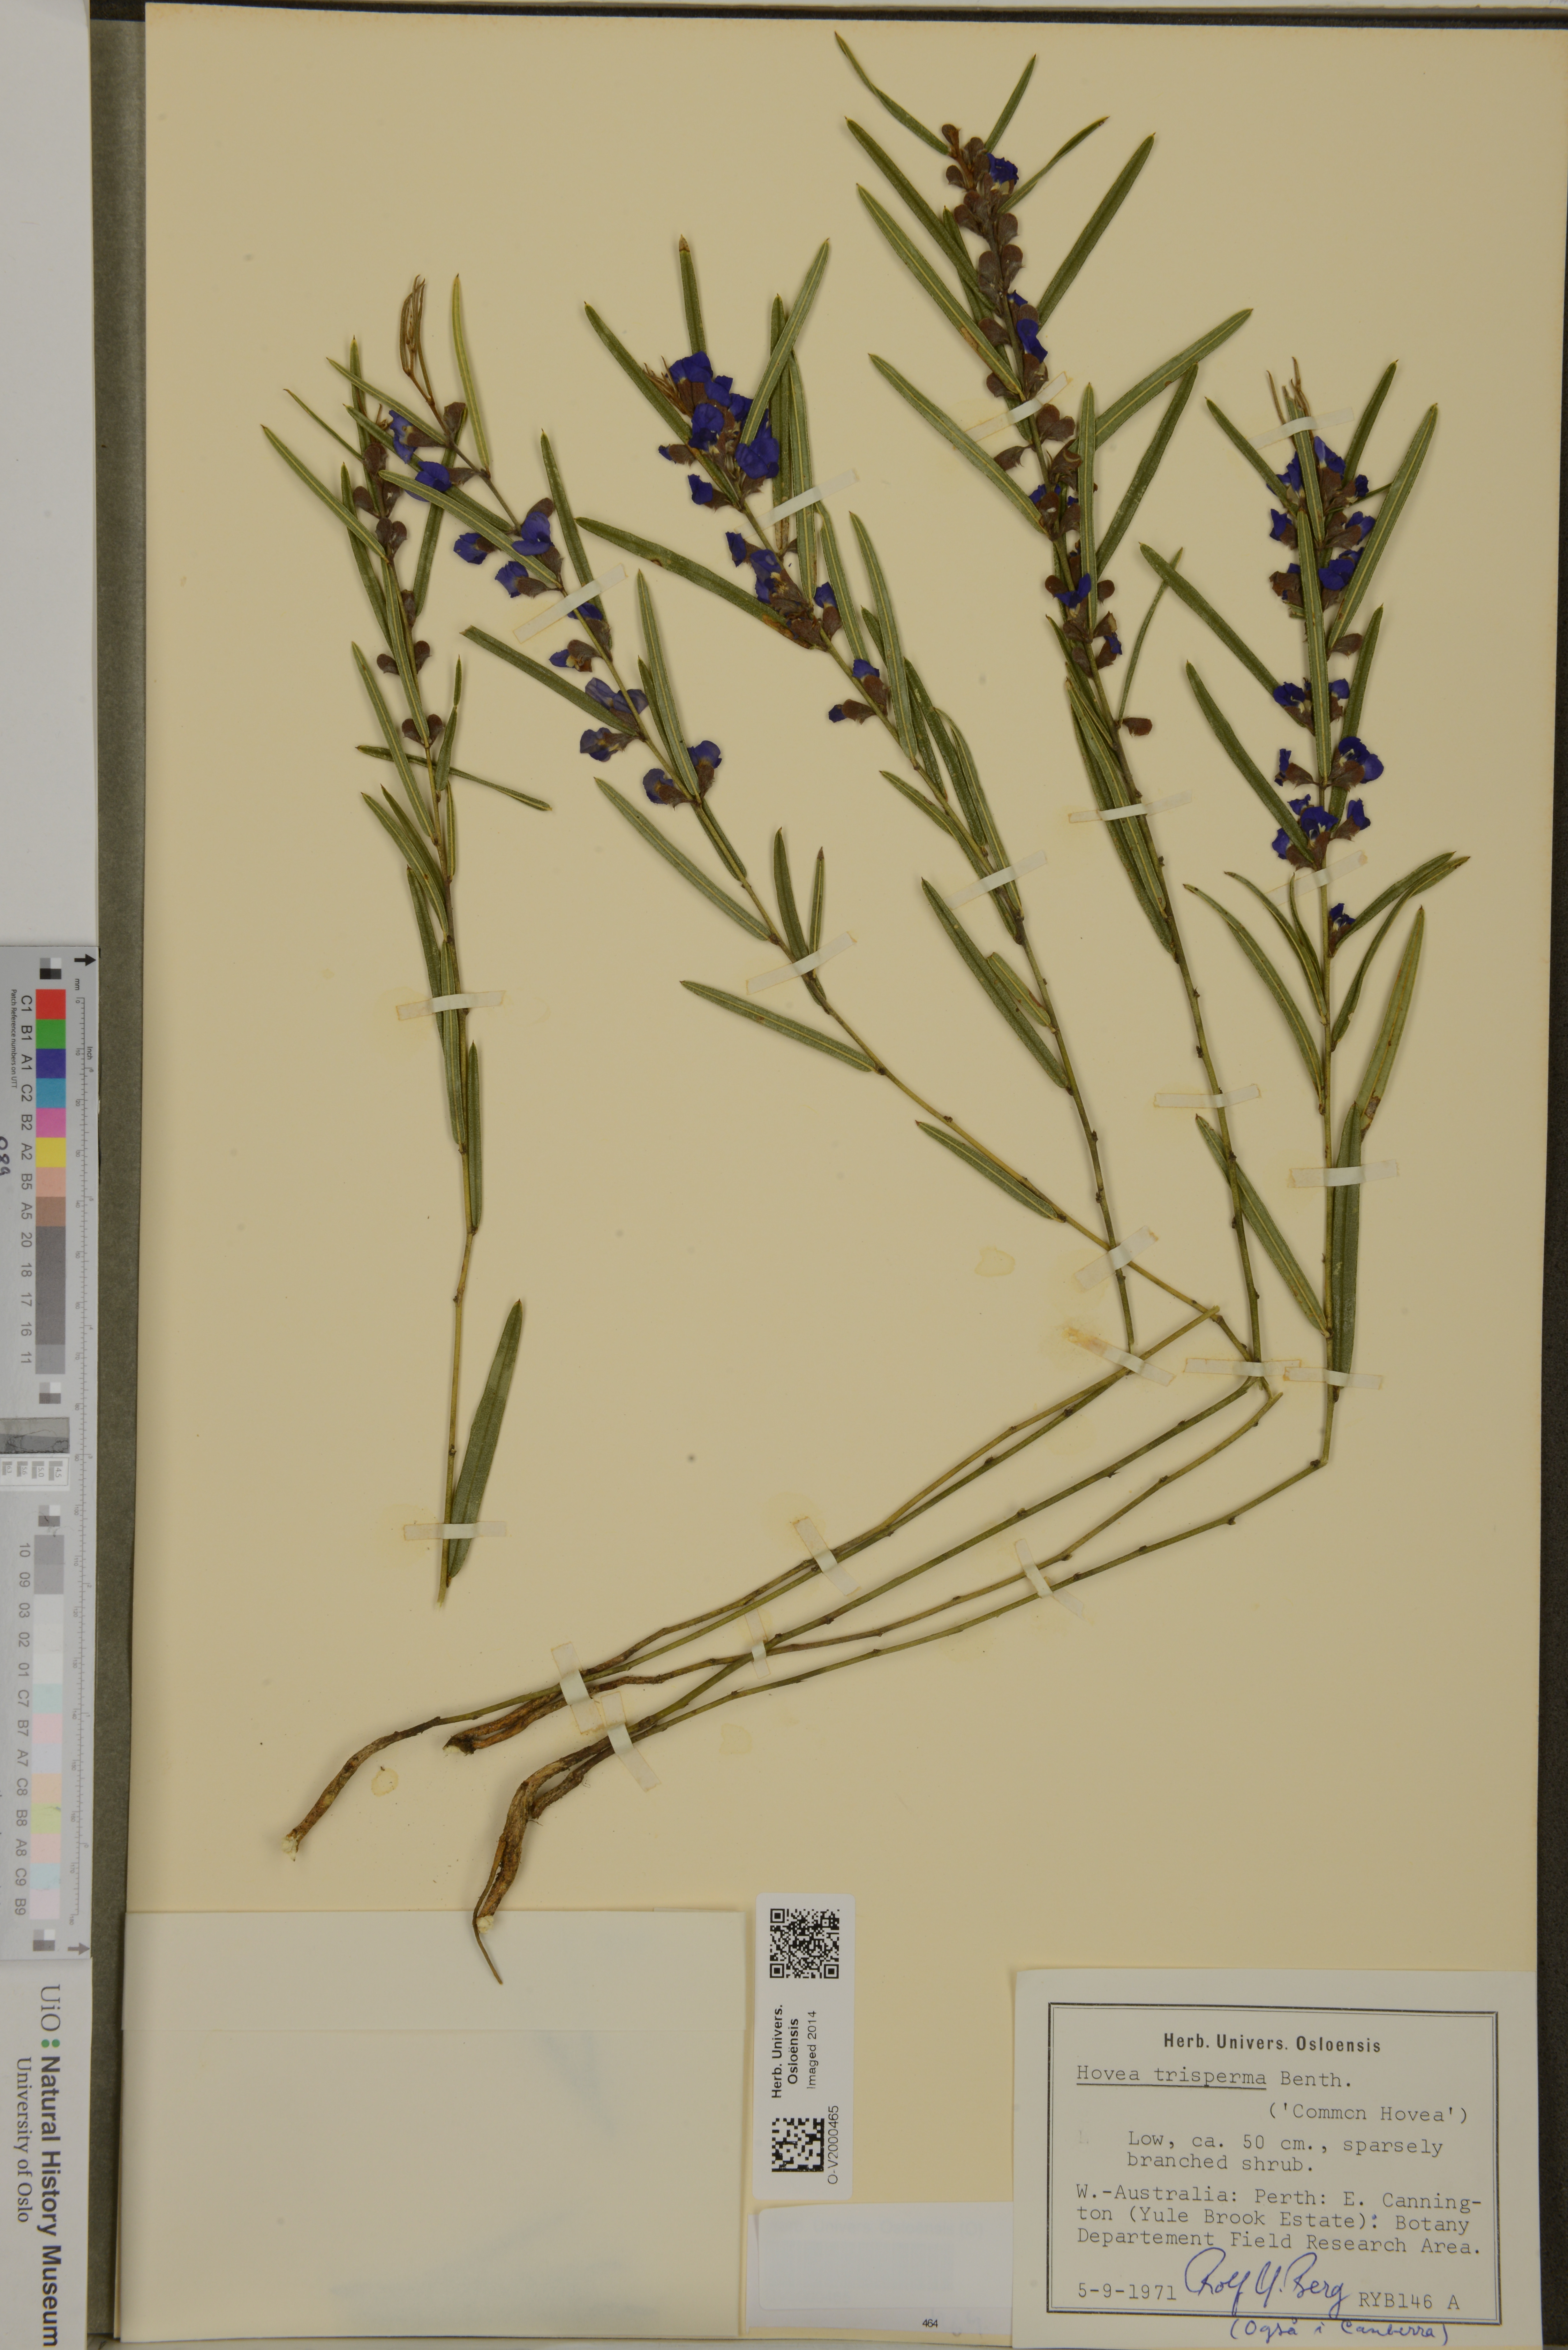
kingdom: Plantae
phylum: Tracheophyta
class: Magnoliopsida
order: Fabales
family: Fabaceae
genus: Hovea
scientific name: Hovea trisperma
